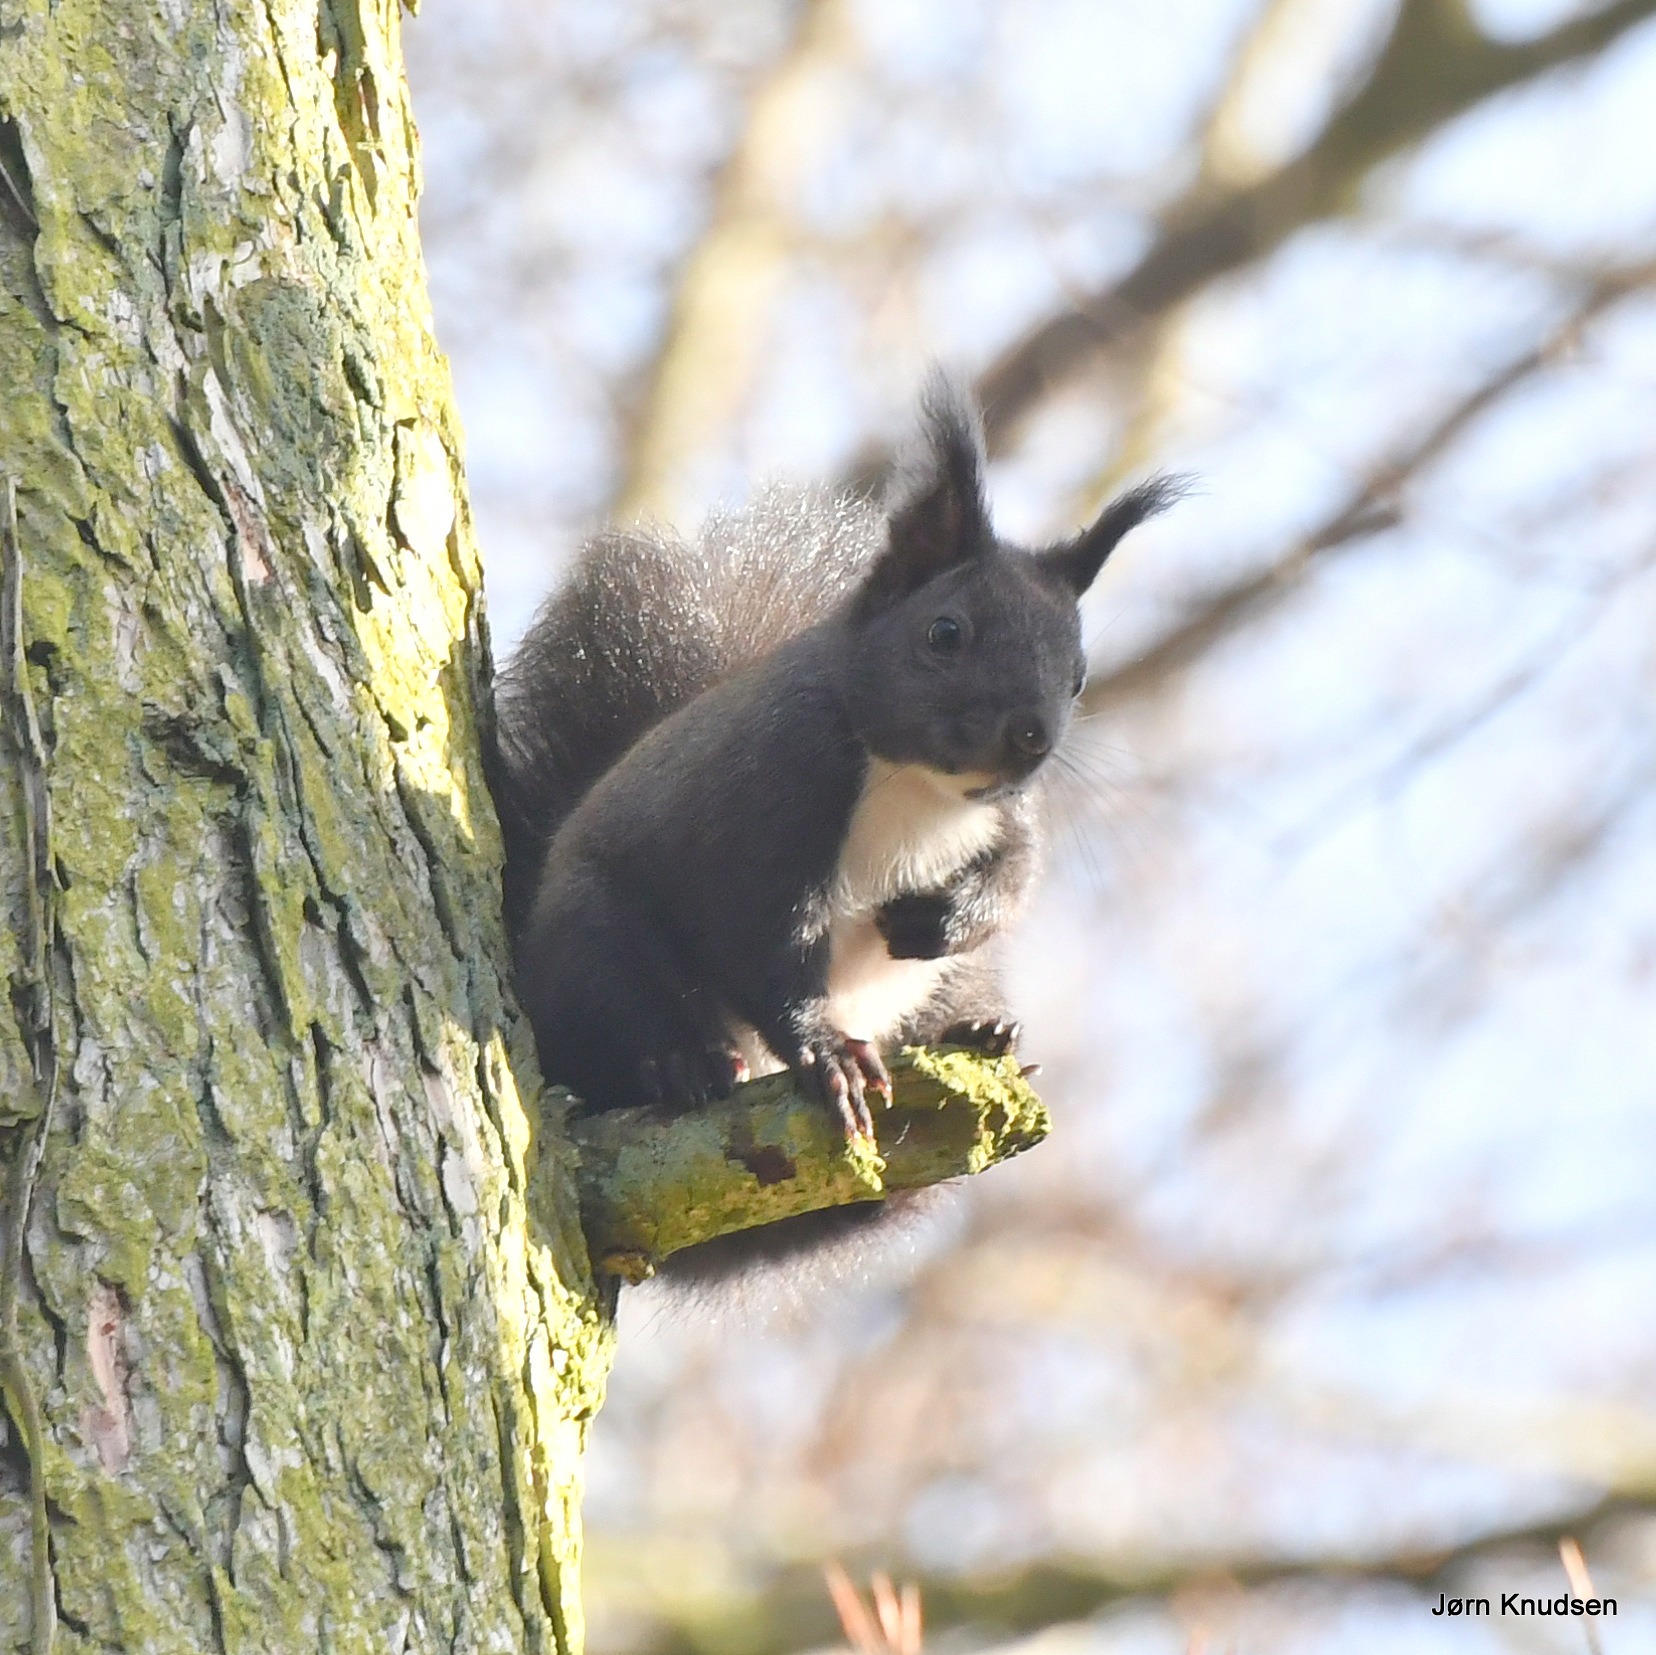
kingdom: Animalia
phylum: Chordata
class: Mammalia
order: Rodentia
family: Sciuridae
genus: Sciurus
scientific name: Sciurus vulgaris
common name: Egern
